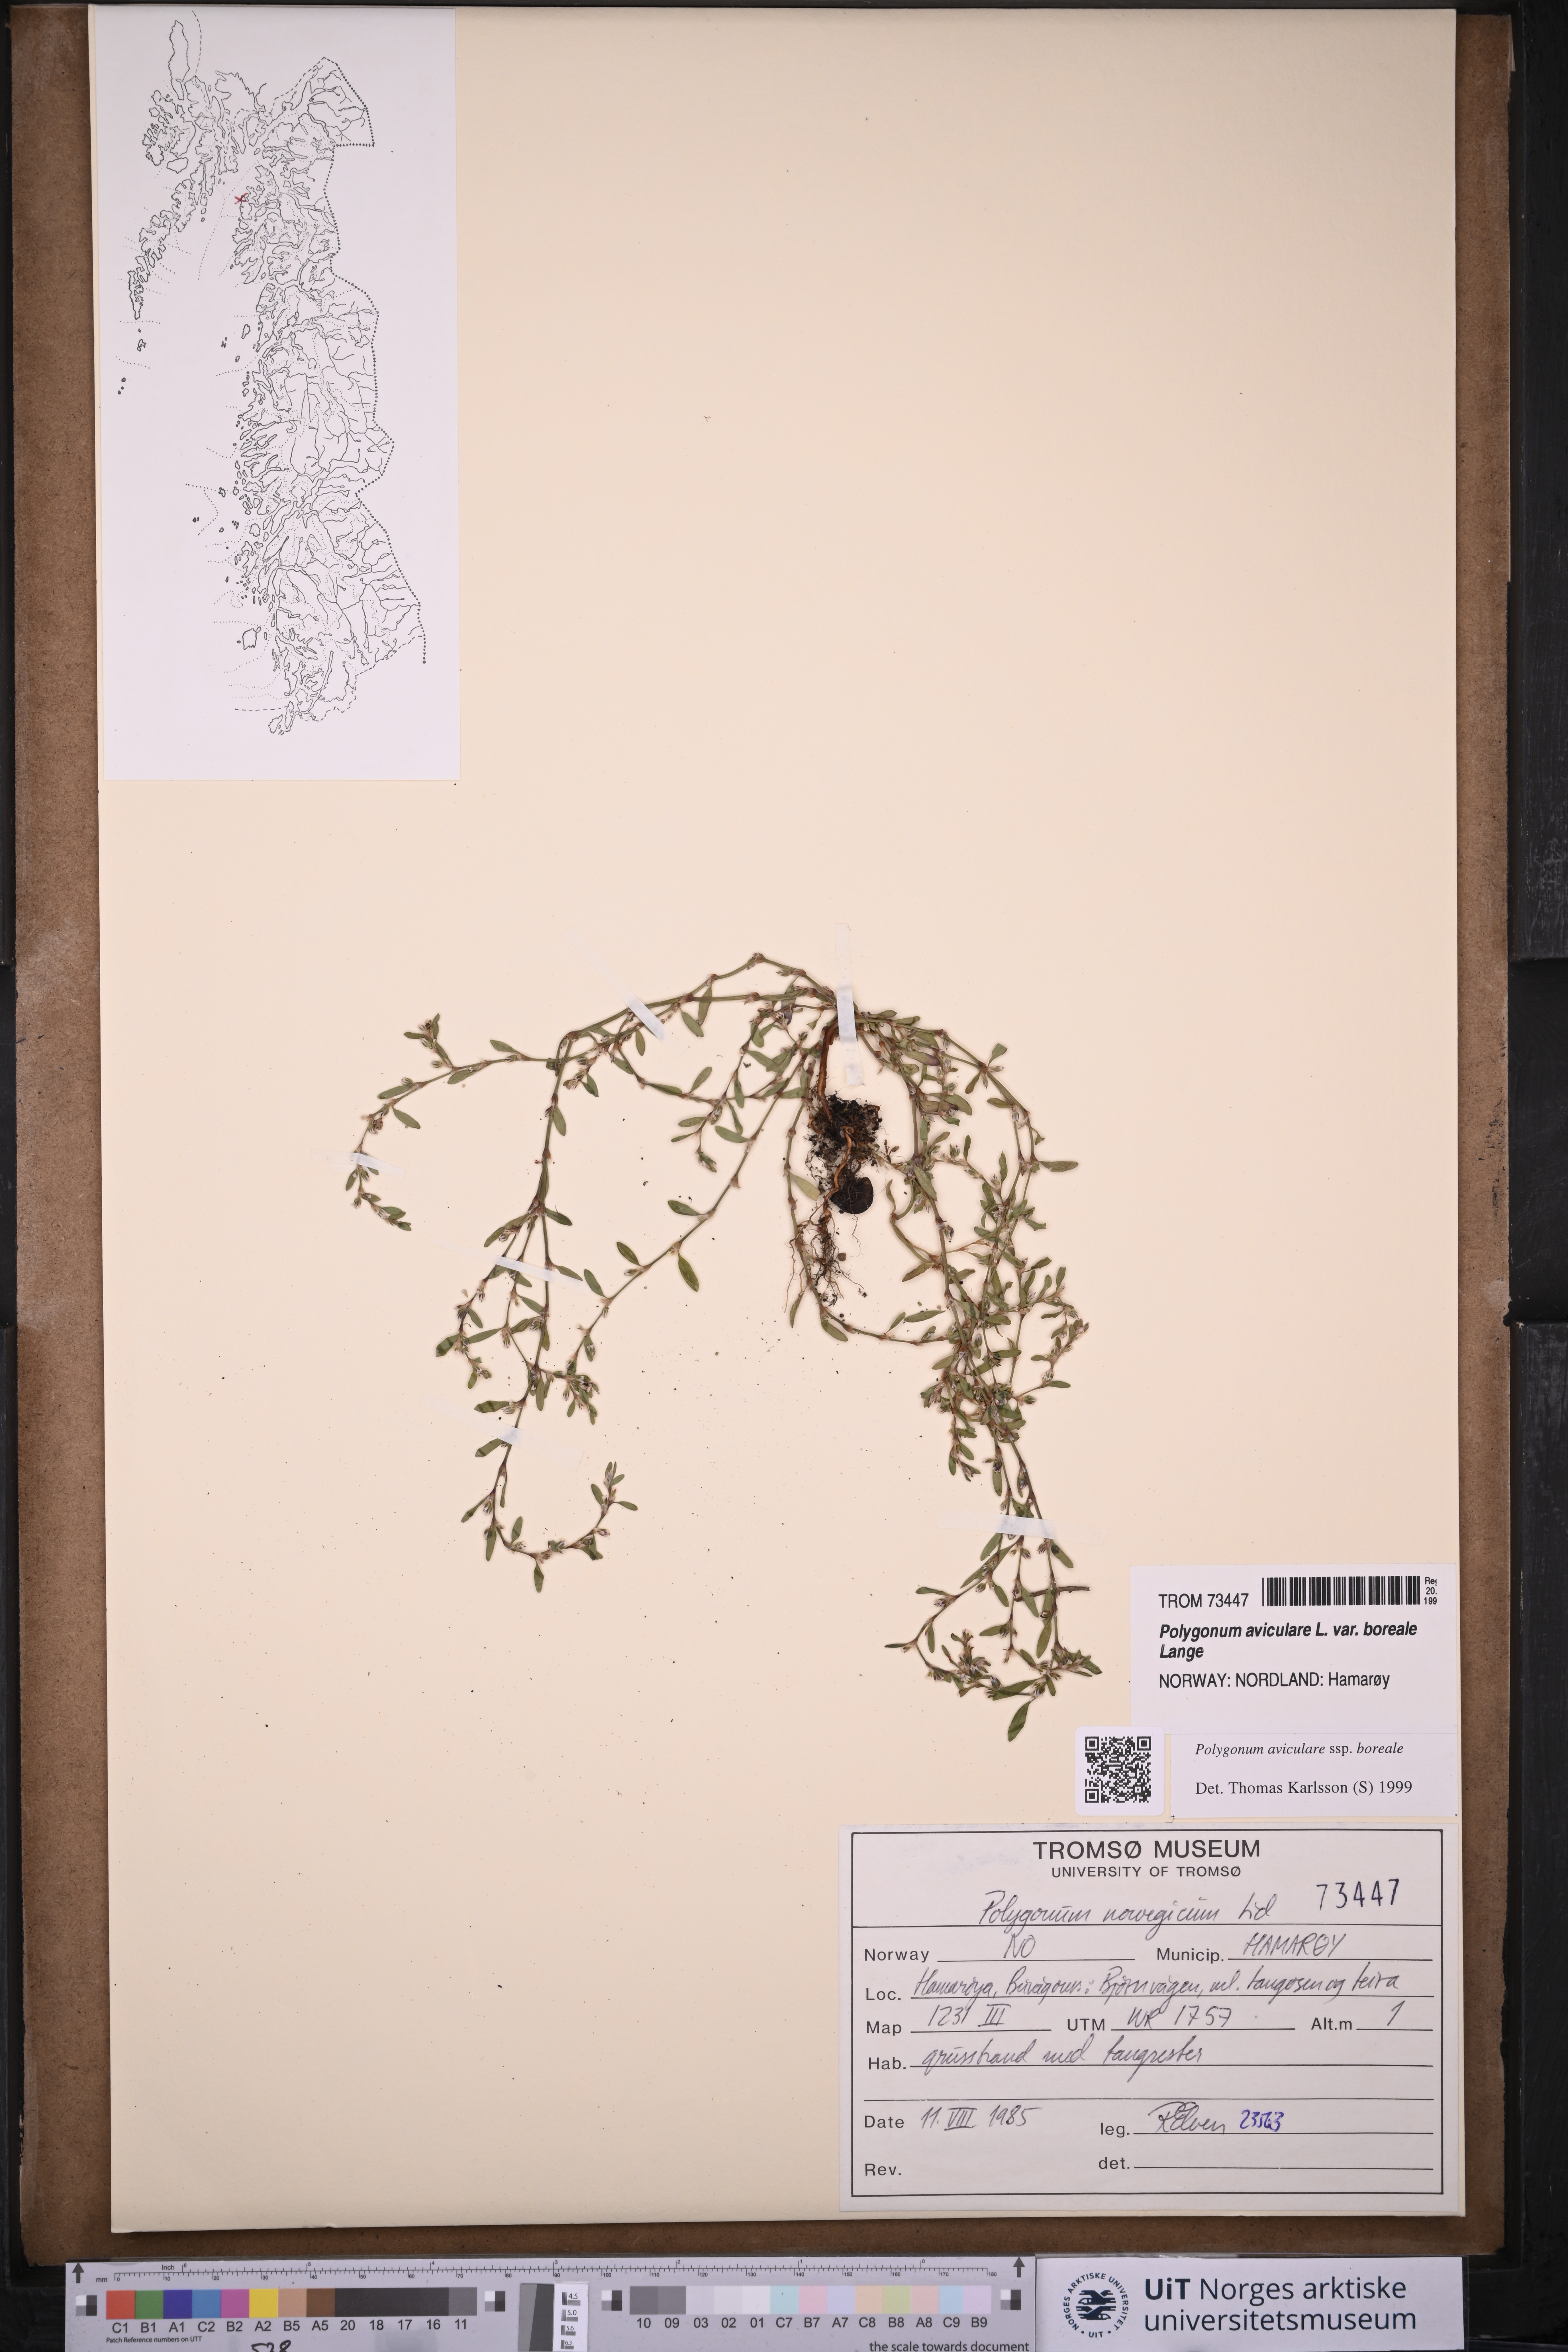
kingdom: Plantae
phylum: Tracheophyta
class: Magnoliopsida
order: Caryophyllales
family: Polygonaceae
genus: Polygonum
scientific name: Polygonum boreale
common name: Northern knotgrass
